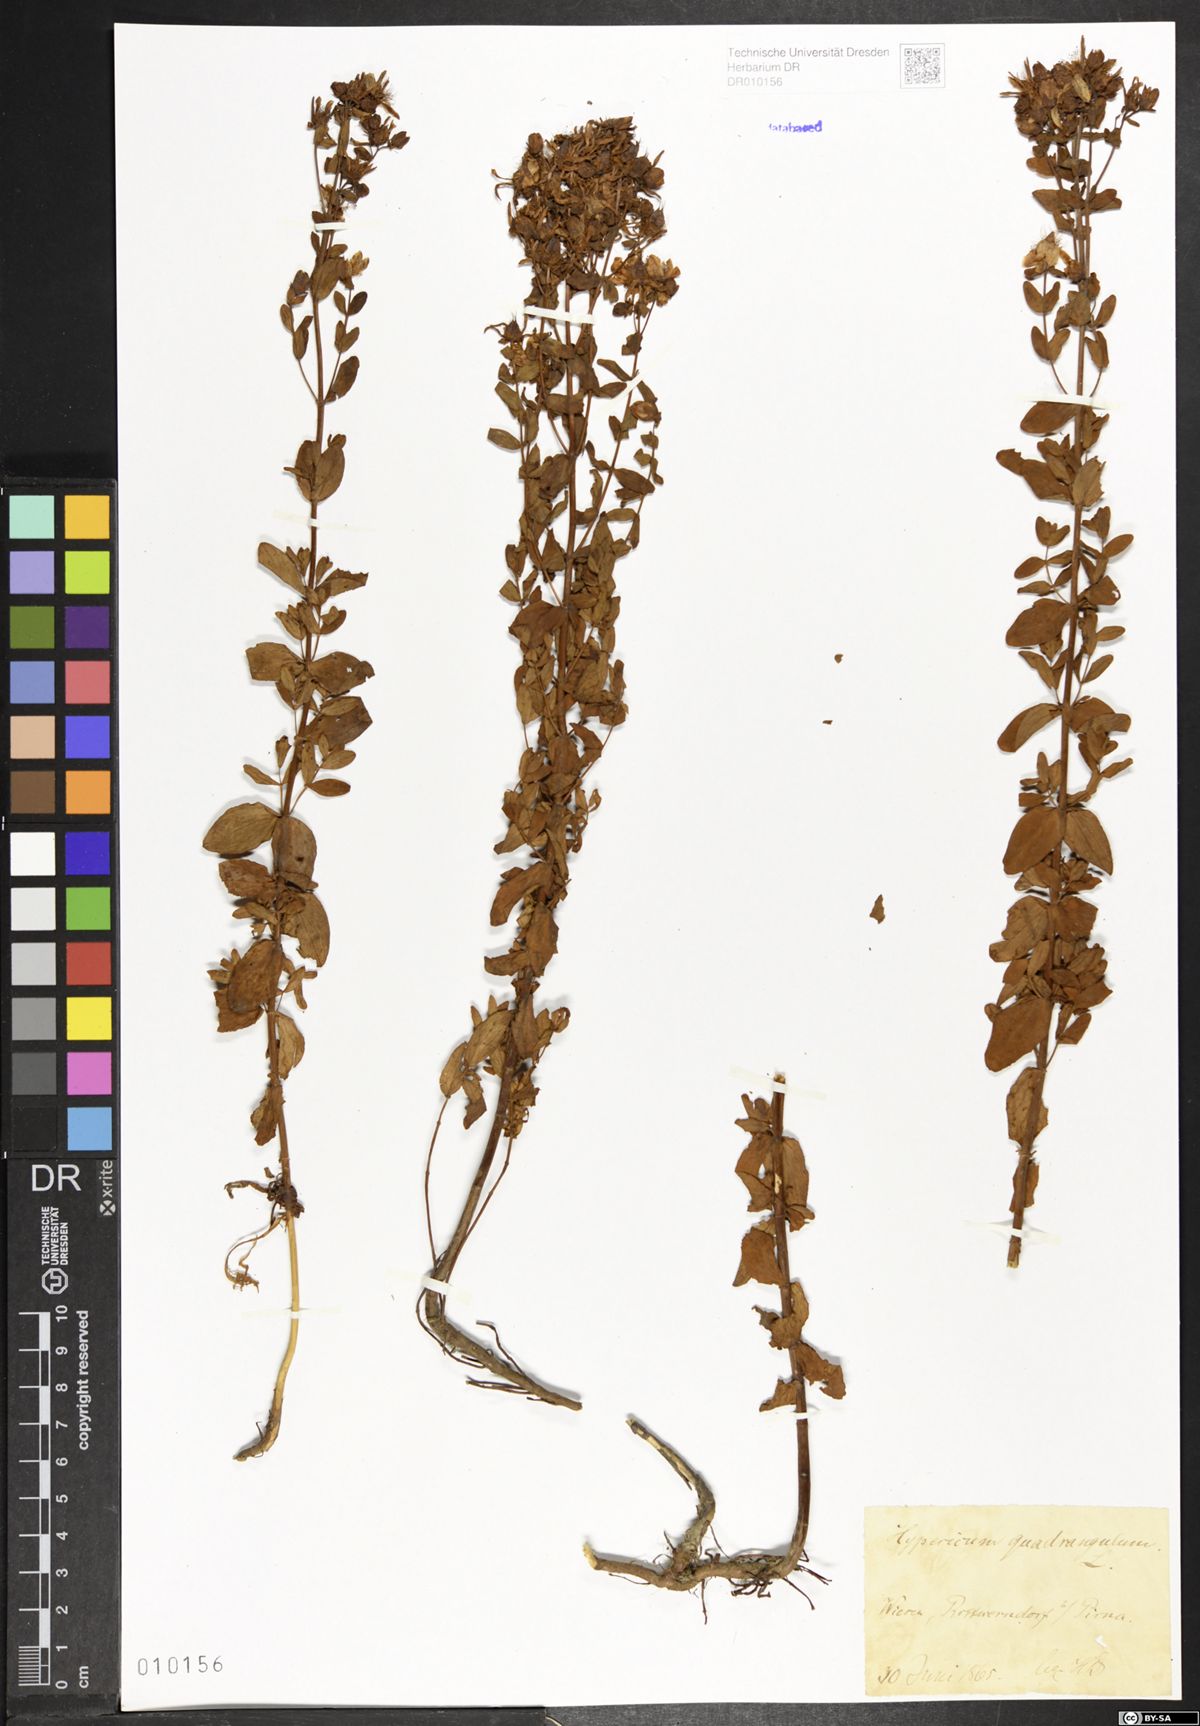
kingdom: Plantae
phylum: Tracheophyta
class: Magnoliopsida
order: Malpighiales
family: Hypericaceae
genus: Hypericum
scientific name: Hypericum maculatum
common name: Imperforate st. john's-wort
